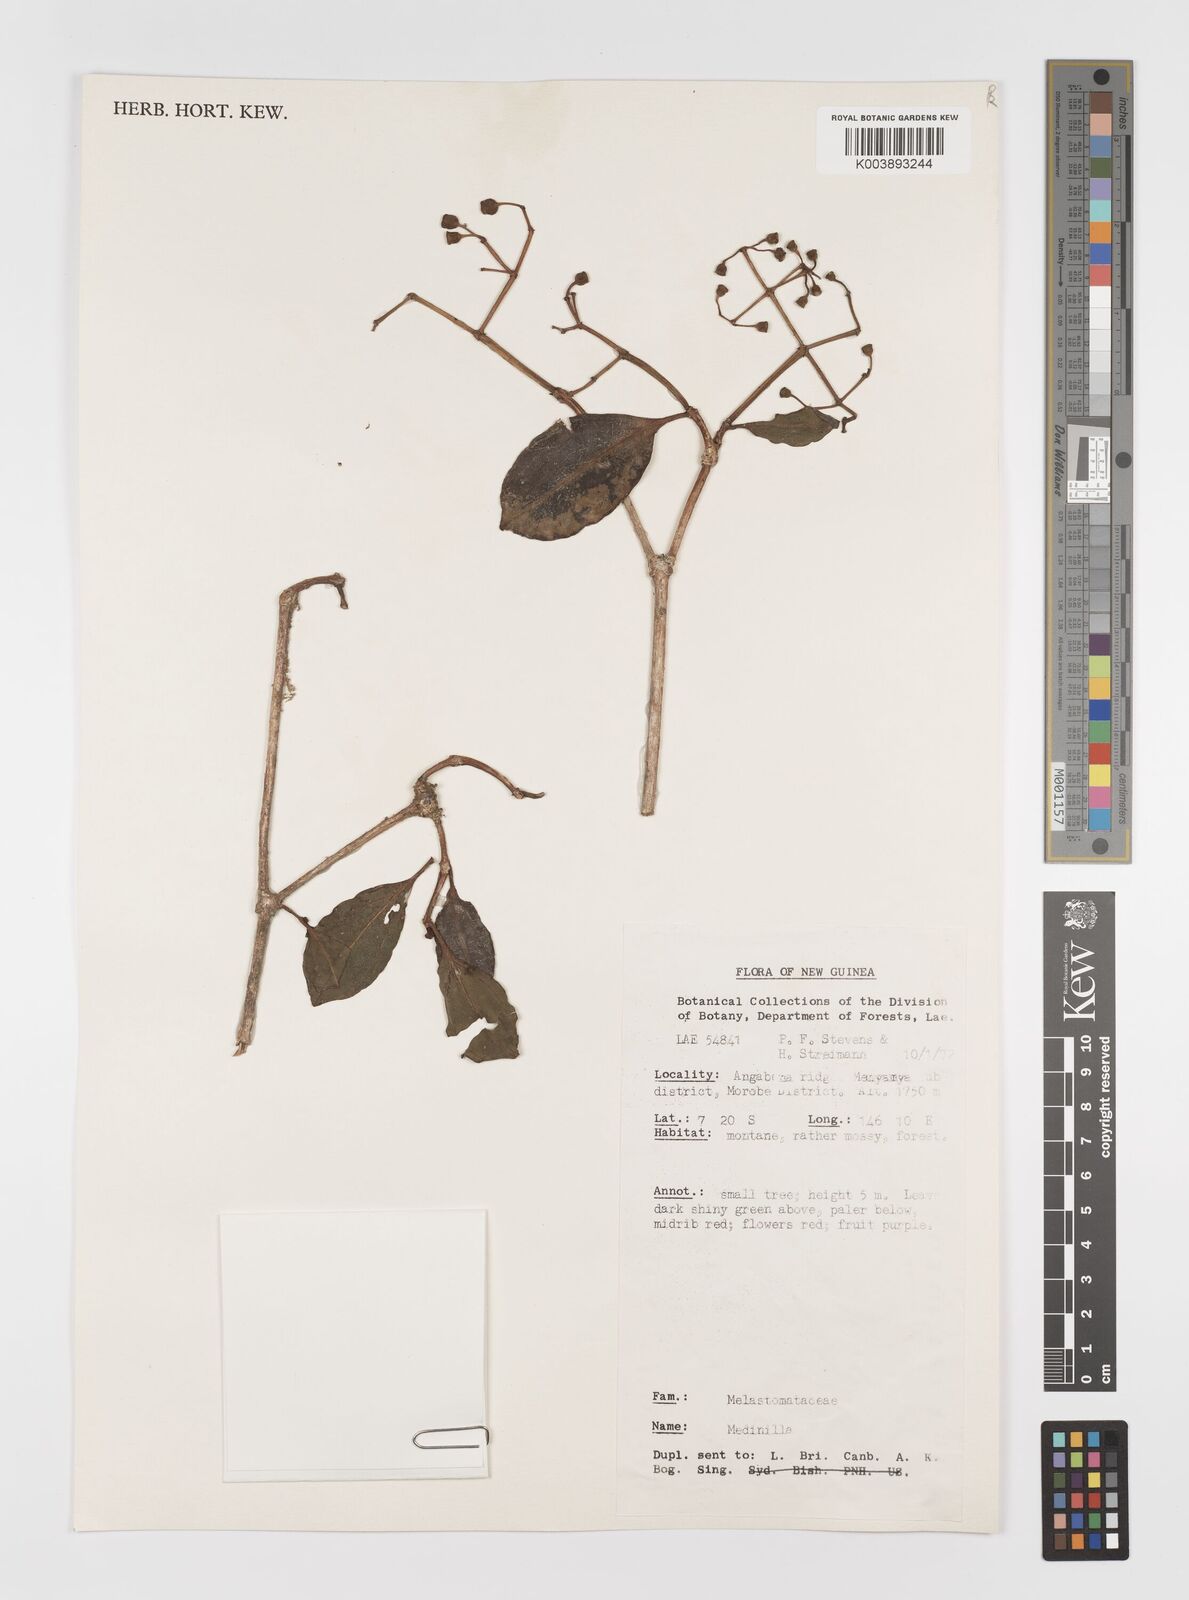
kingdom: Plantae
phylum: Tracheophyta
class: Magnoliopsida
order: Myrtales
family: Melastomataceae
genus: Medinilla
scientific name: Medinilla
